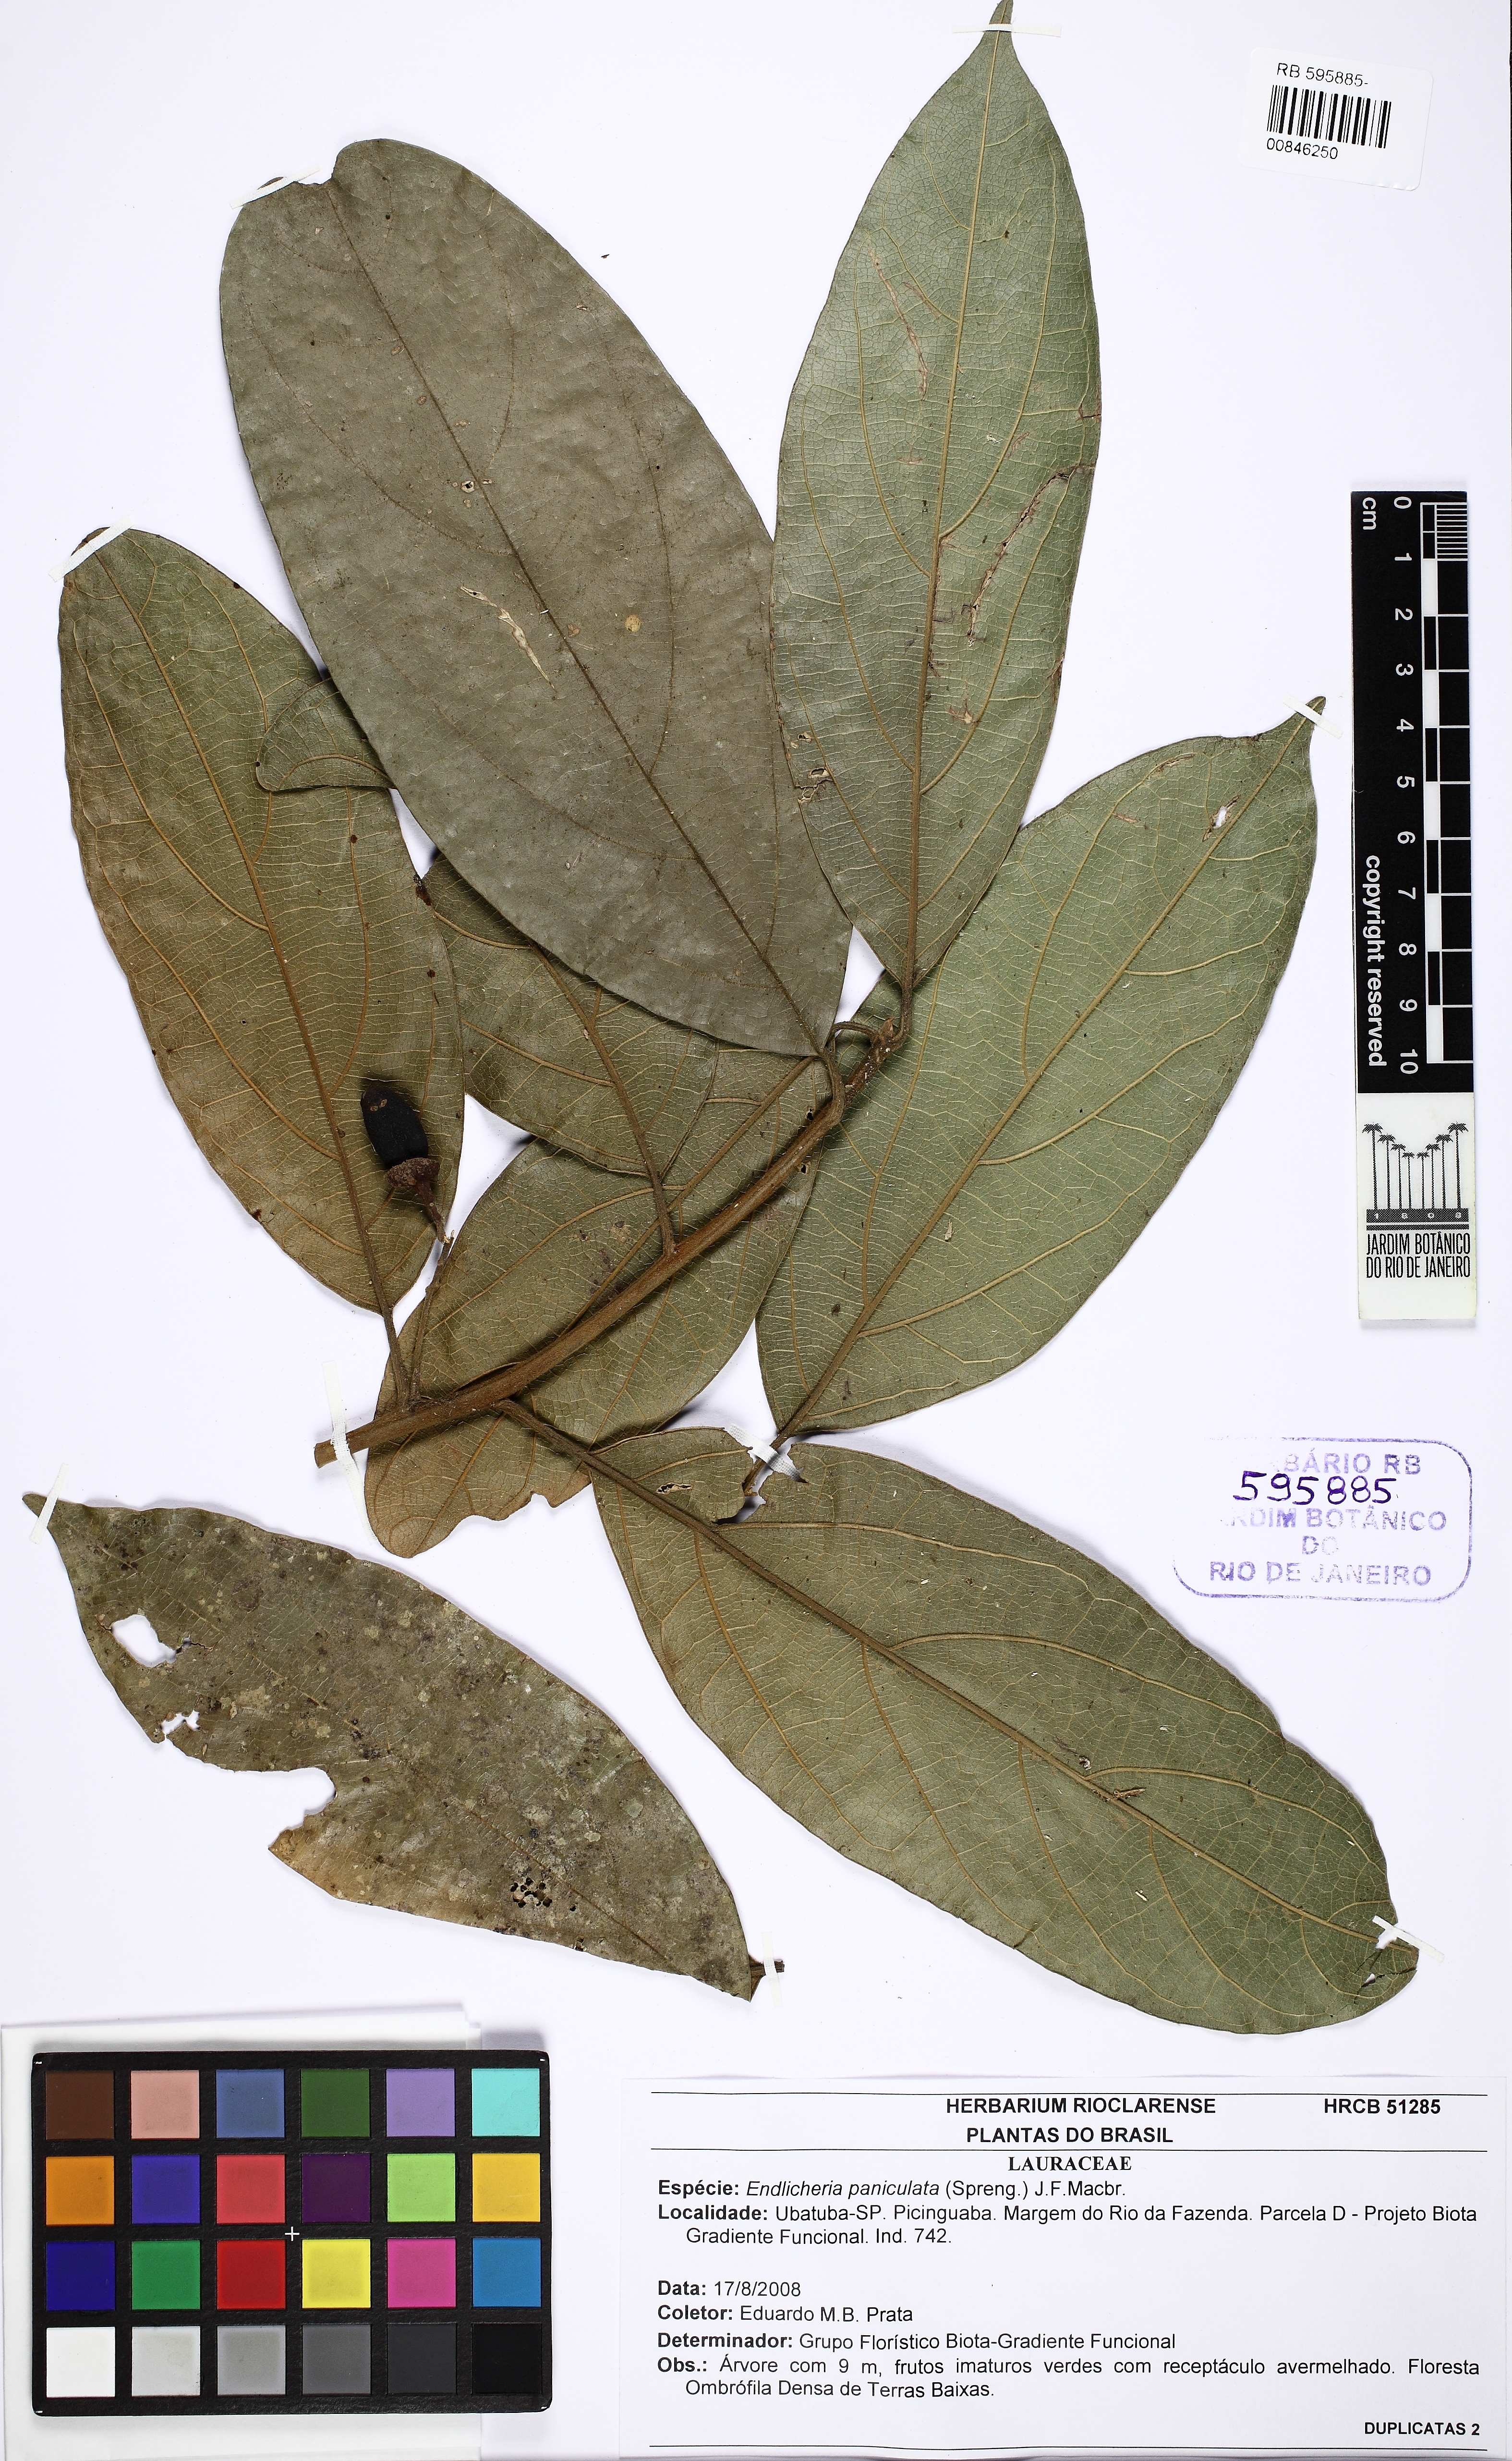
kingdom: Plantae
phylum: Tracheophyta
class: Magnoliopsida
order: Laurales
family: Lauraceae
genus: Endlicheria
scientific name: Endlicheria paniculata
